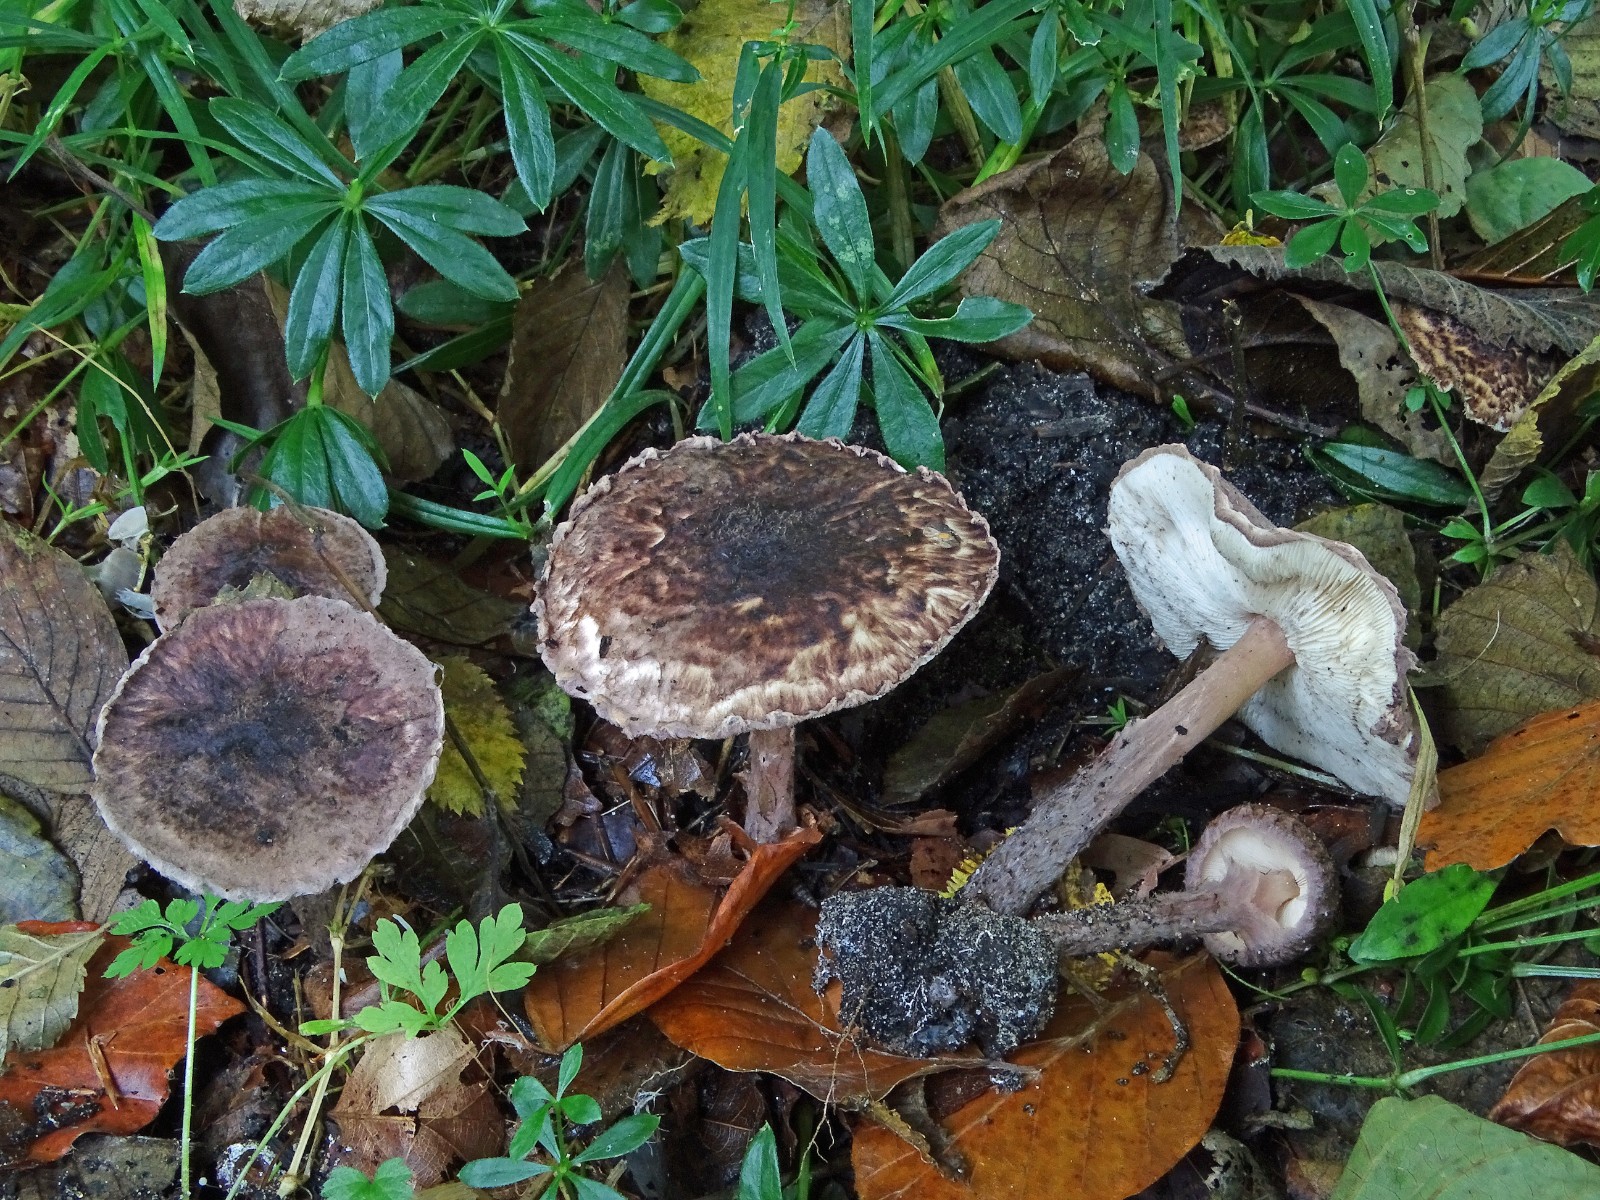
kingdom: Fungi
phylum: Basidiomycota
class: Agaricomycetes
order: Agaricales
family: Agaricaceae
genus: Lepiota
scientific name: Lepiota fuscovinacea
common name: vinrød parasolhat
